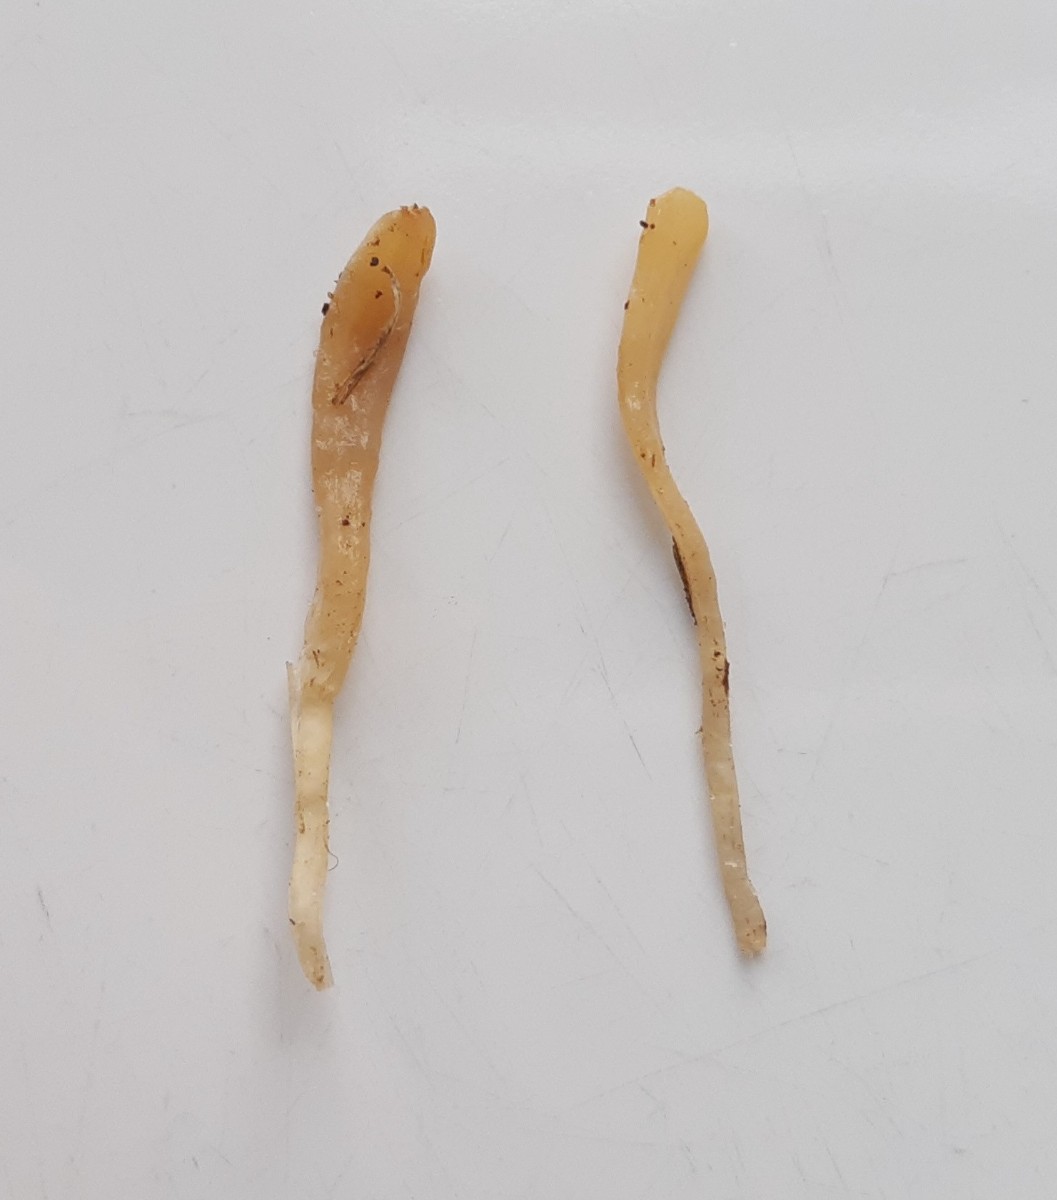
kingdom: Fungi
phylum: Basidiomycota
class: Agaricomycetes
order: Agaricales
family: Clavariaceae
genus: Clavaria
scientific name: Clavaria tenuipes
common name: isabellafarvet køllesvamp
